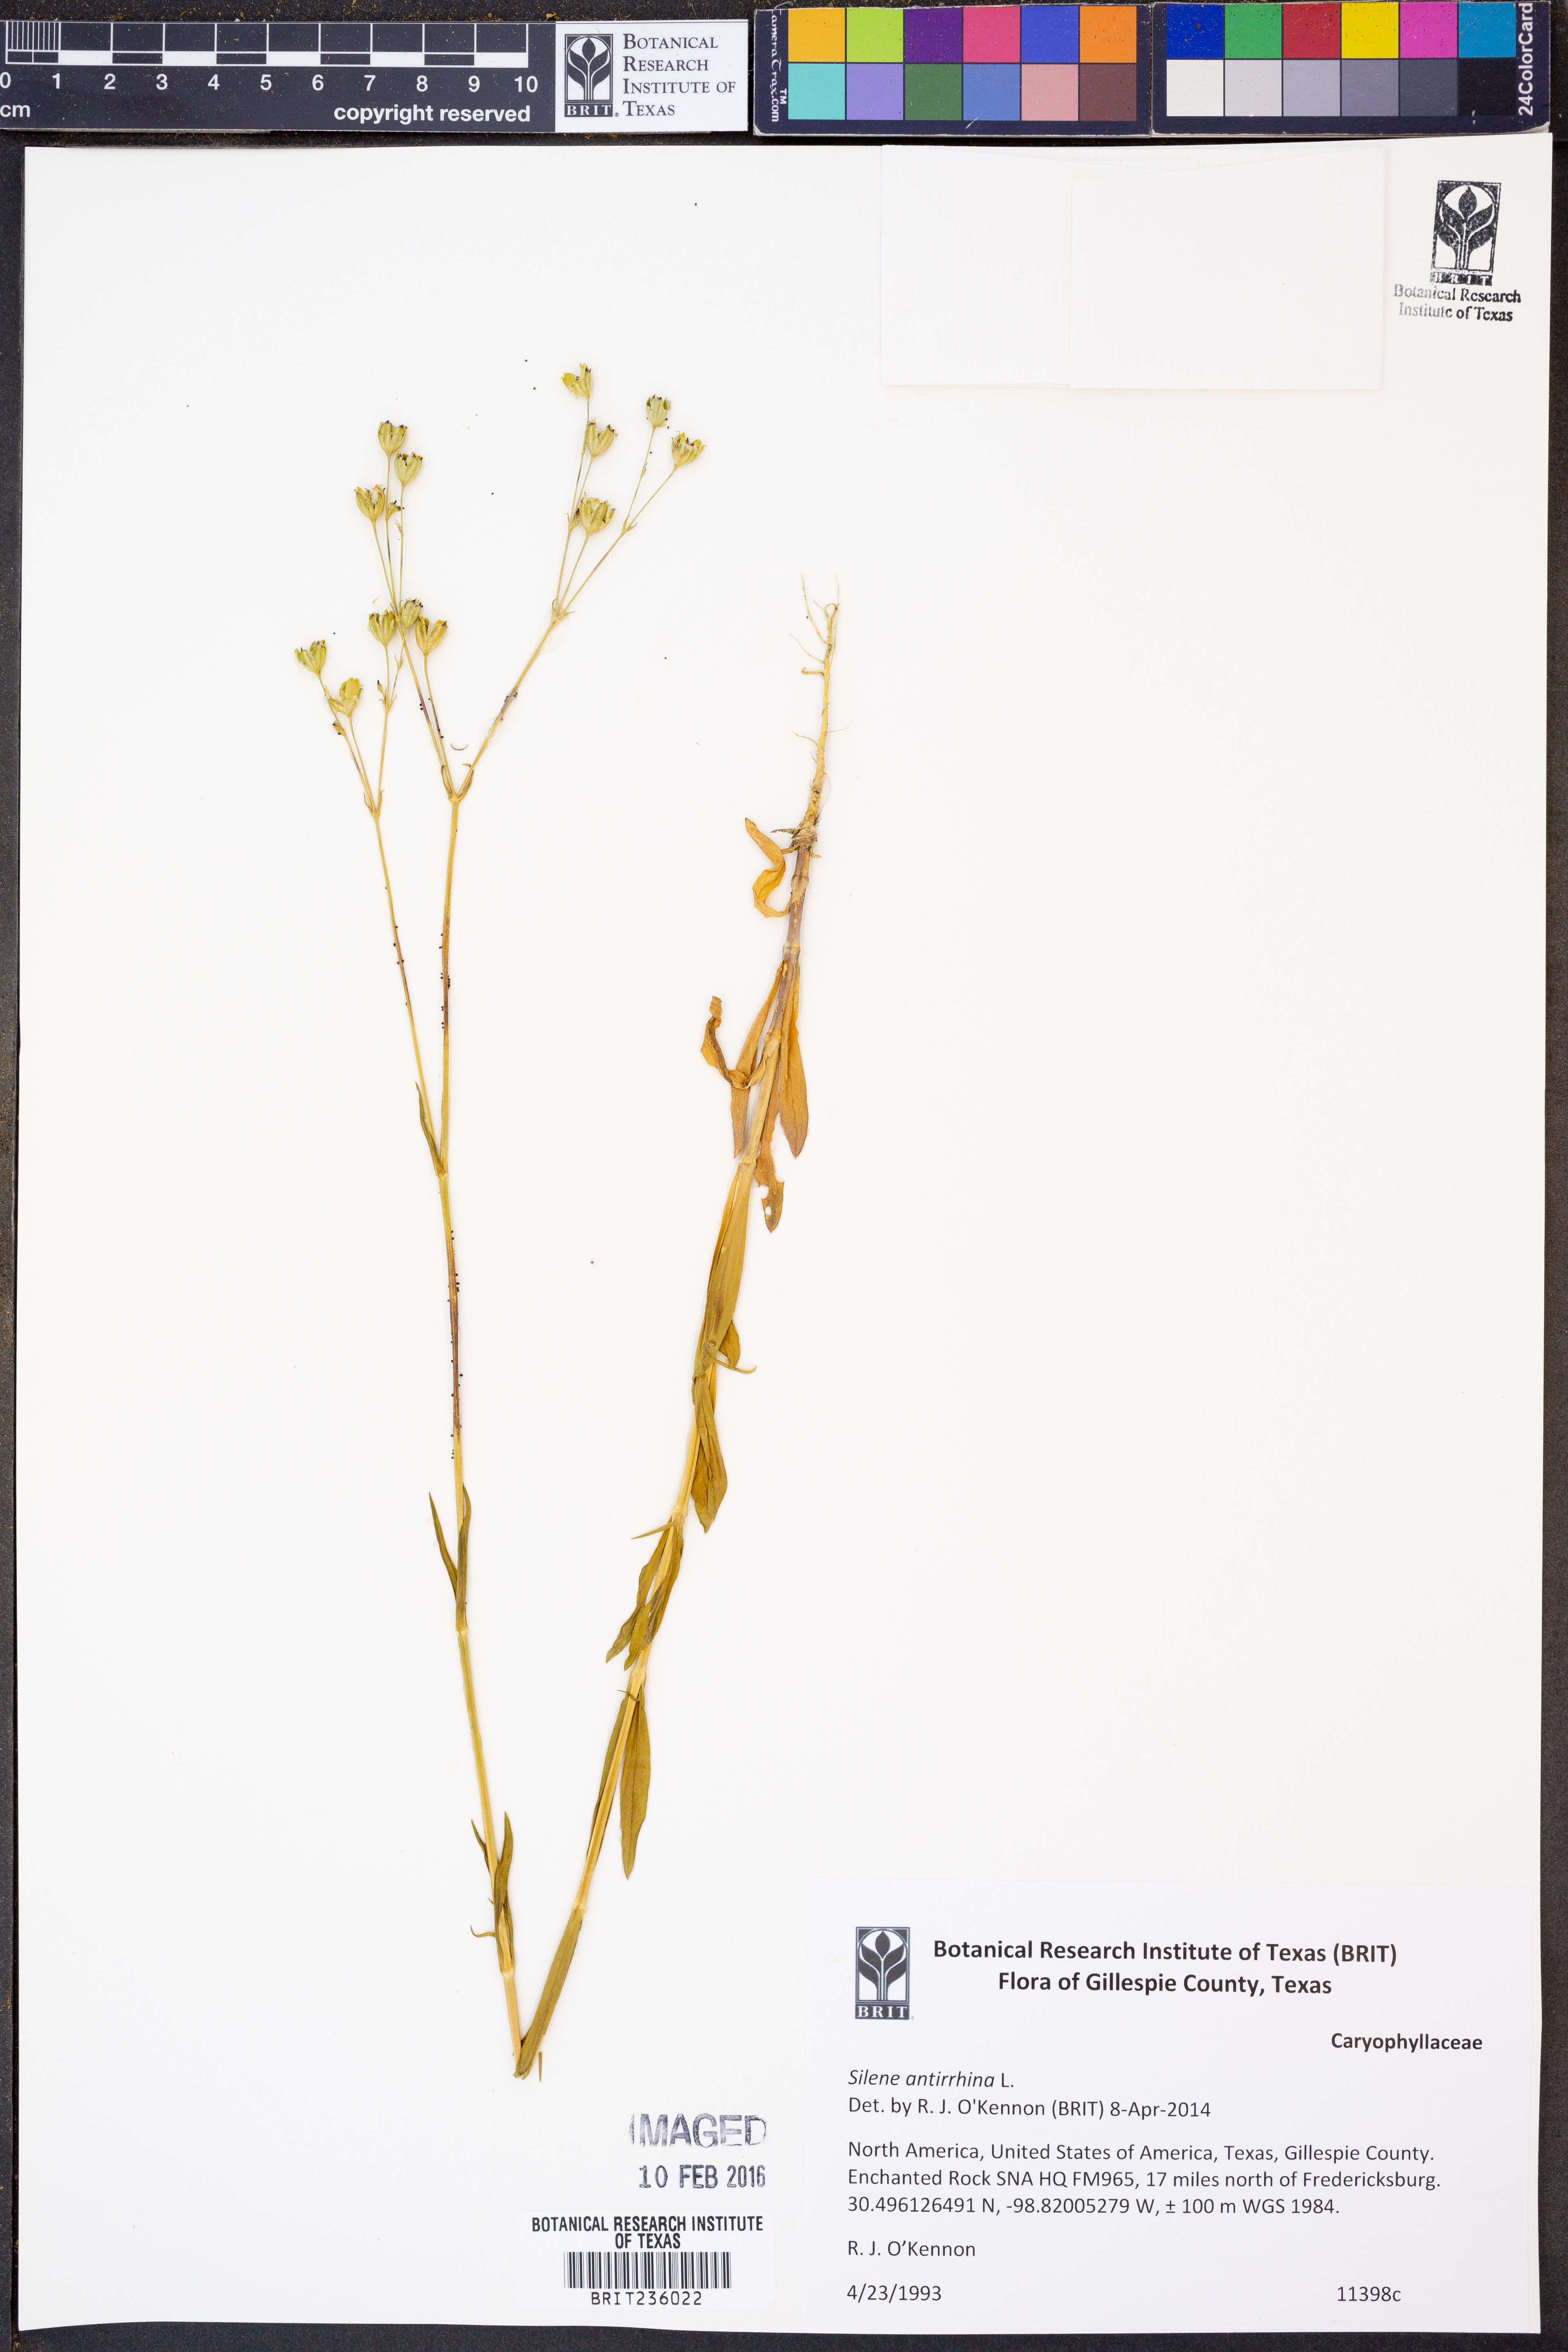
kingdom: Plantae
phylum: Tracheophyta
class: Magnoliopsida
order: Caryophyllales
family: Caryophyllaceae
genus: Silene
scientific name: Silene antirrhina
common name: Sleepy catchfly
